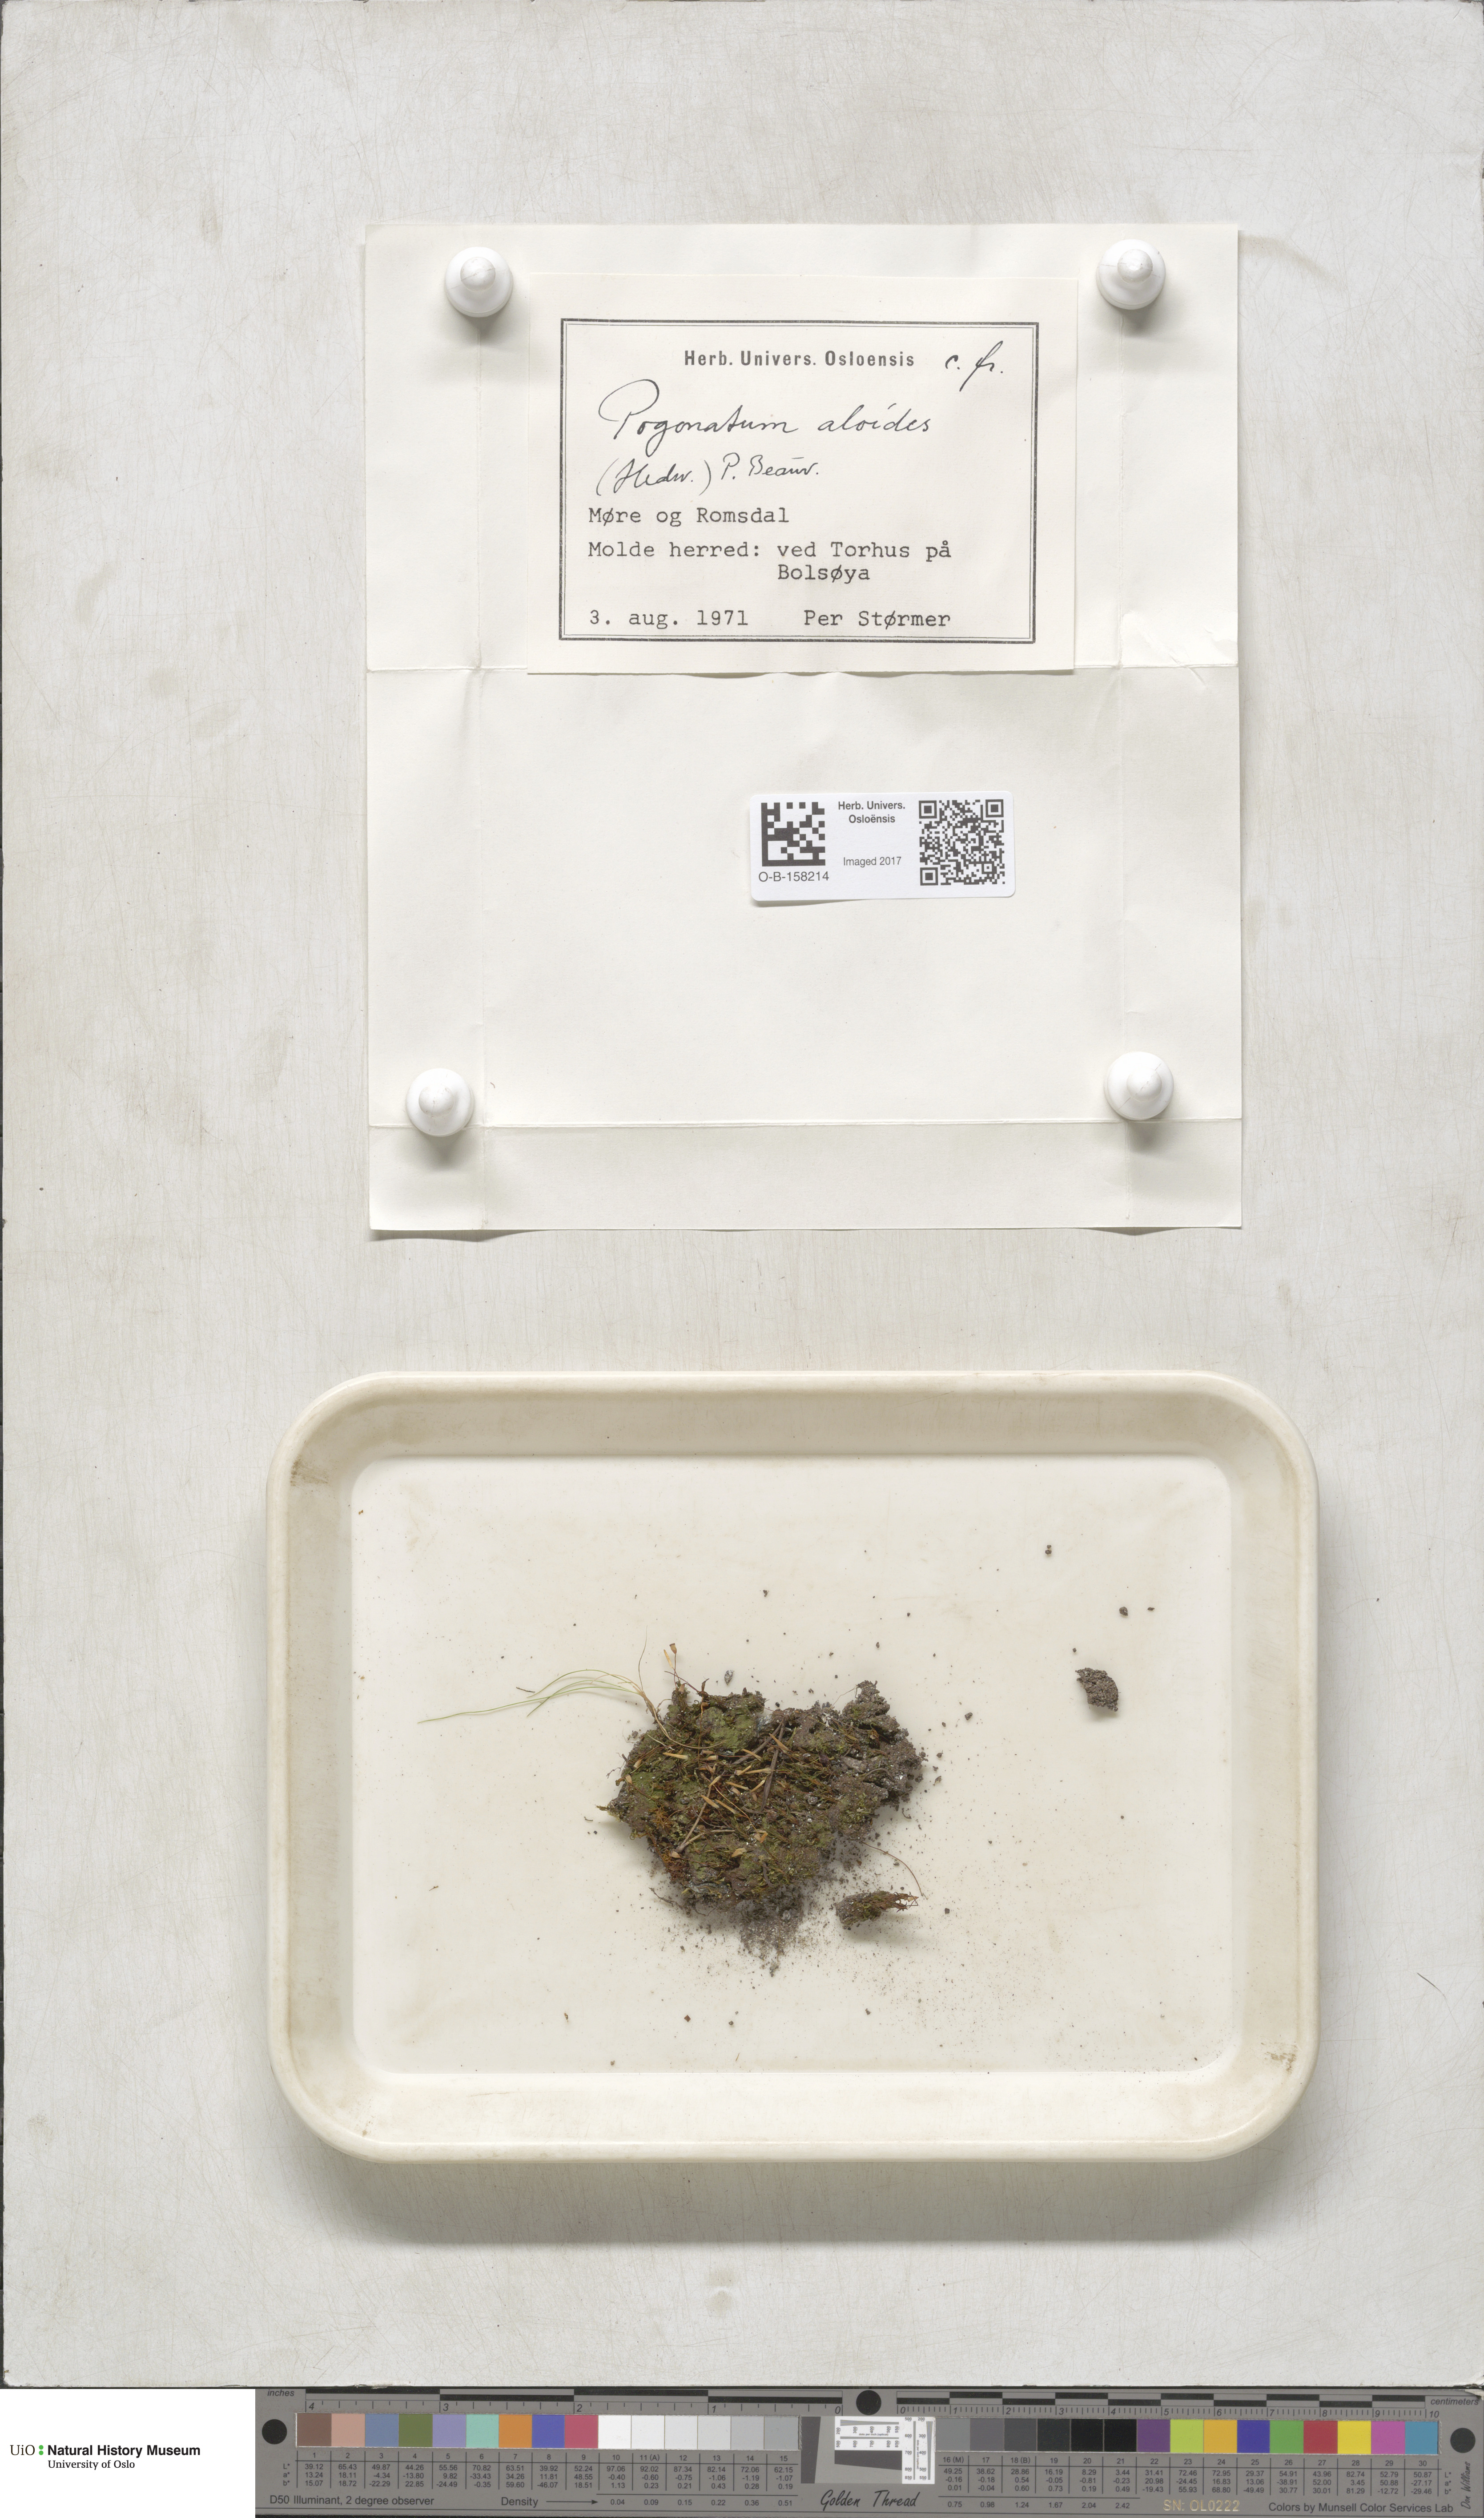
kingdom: Plantae
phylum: Bryophyta
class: Polytrichopsida
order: Polytrichales
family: Polytrichaceae
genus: Pogonatum
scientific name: Pogonatum aloides
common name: Aloe haircap
